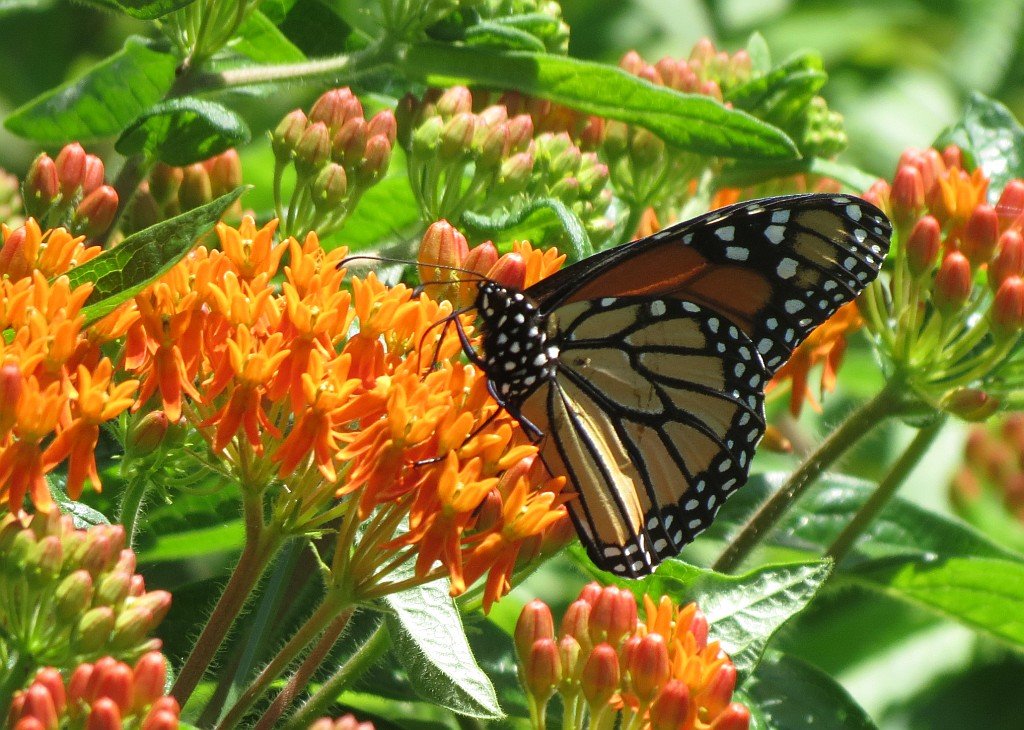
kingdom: Animalia
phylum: Arthropoda
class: Insecta
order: Lepidoptera
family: Nymphalidae
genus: Danaus
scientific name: Danaus plexippus
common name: Monarch
